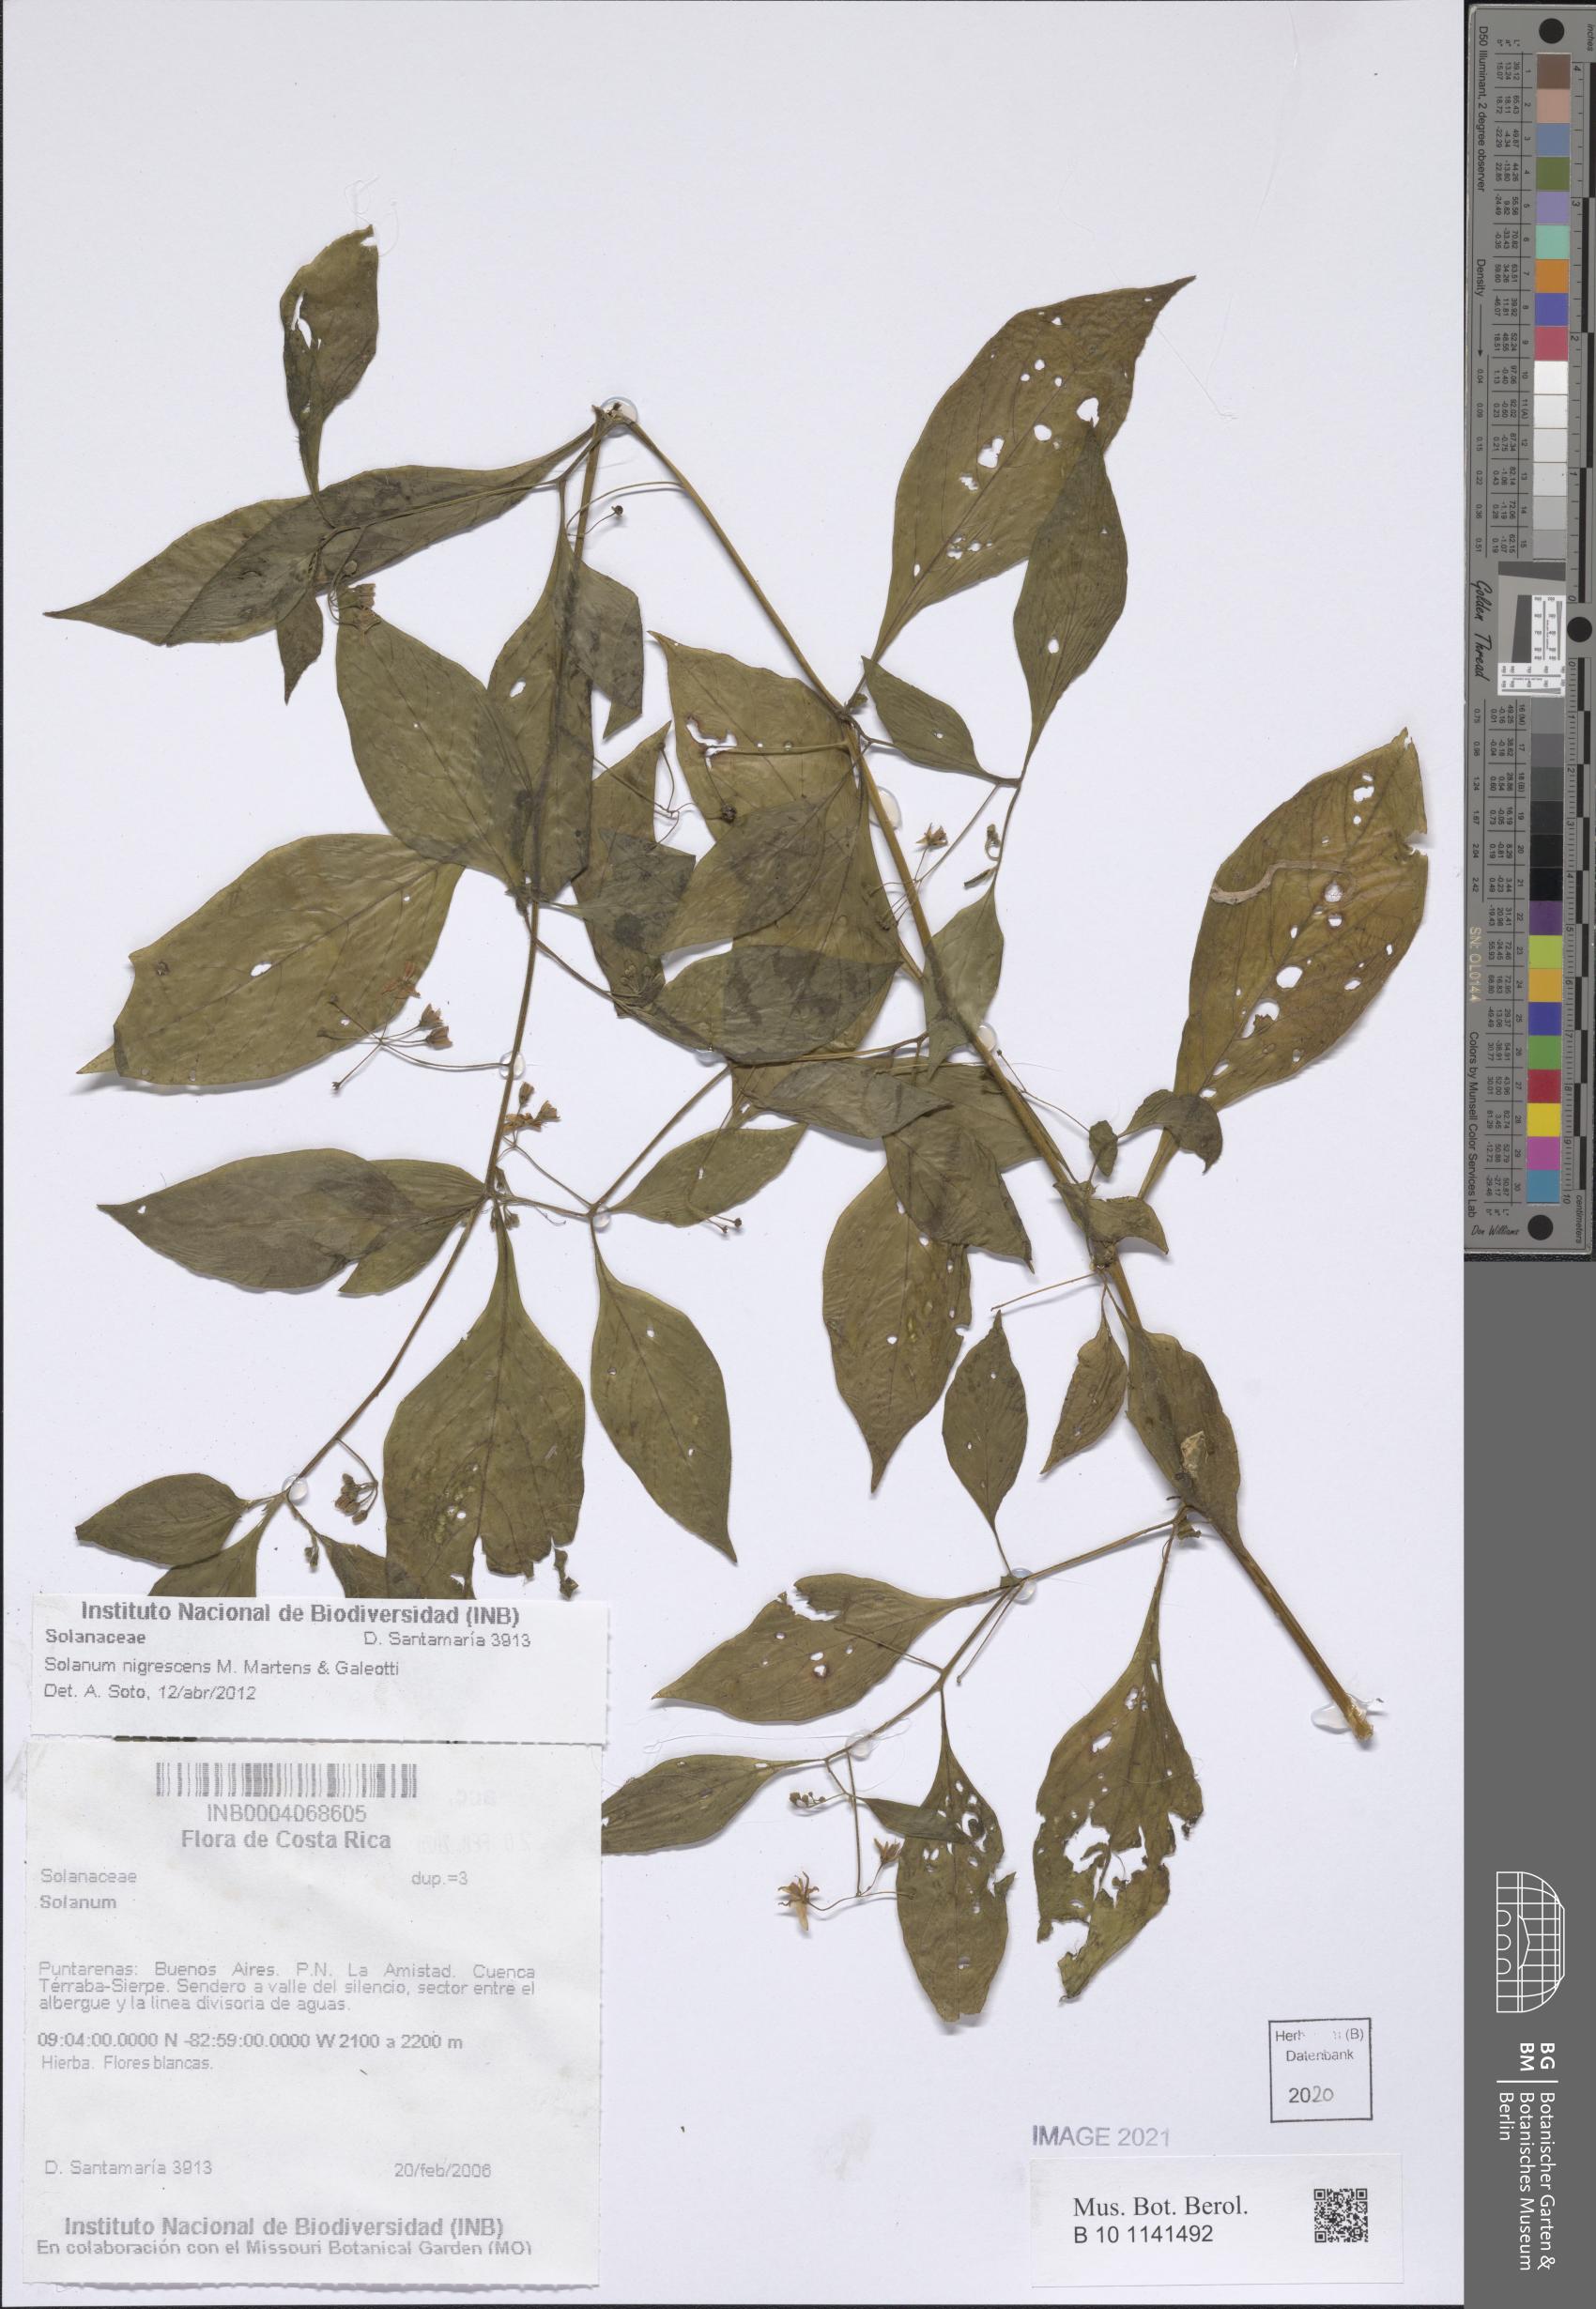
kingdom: Plantae
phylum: Tracheophyta
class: Magnoliopsida
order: Solanales
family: Solanaceae
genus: Solanum
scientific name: Solanum nigrescens
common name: Divine nightshade
